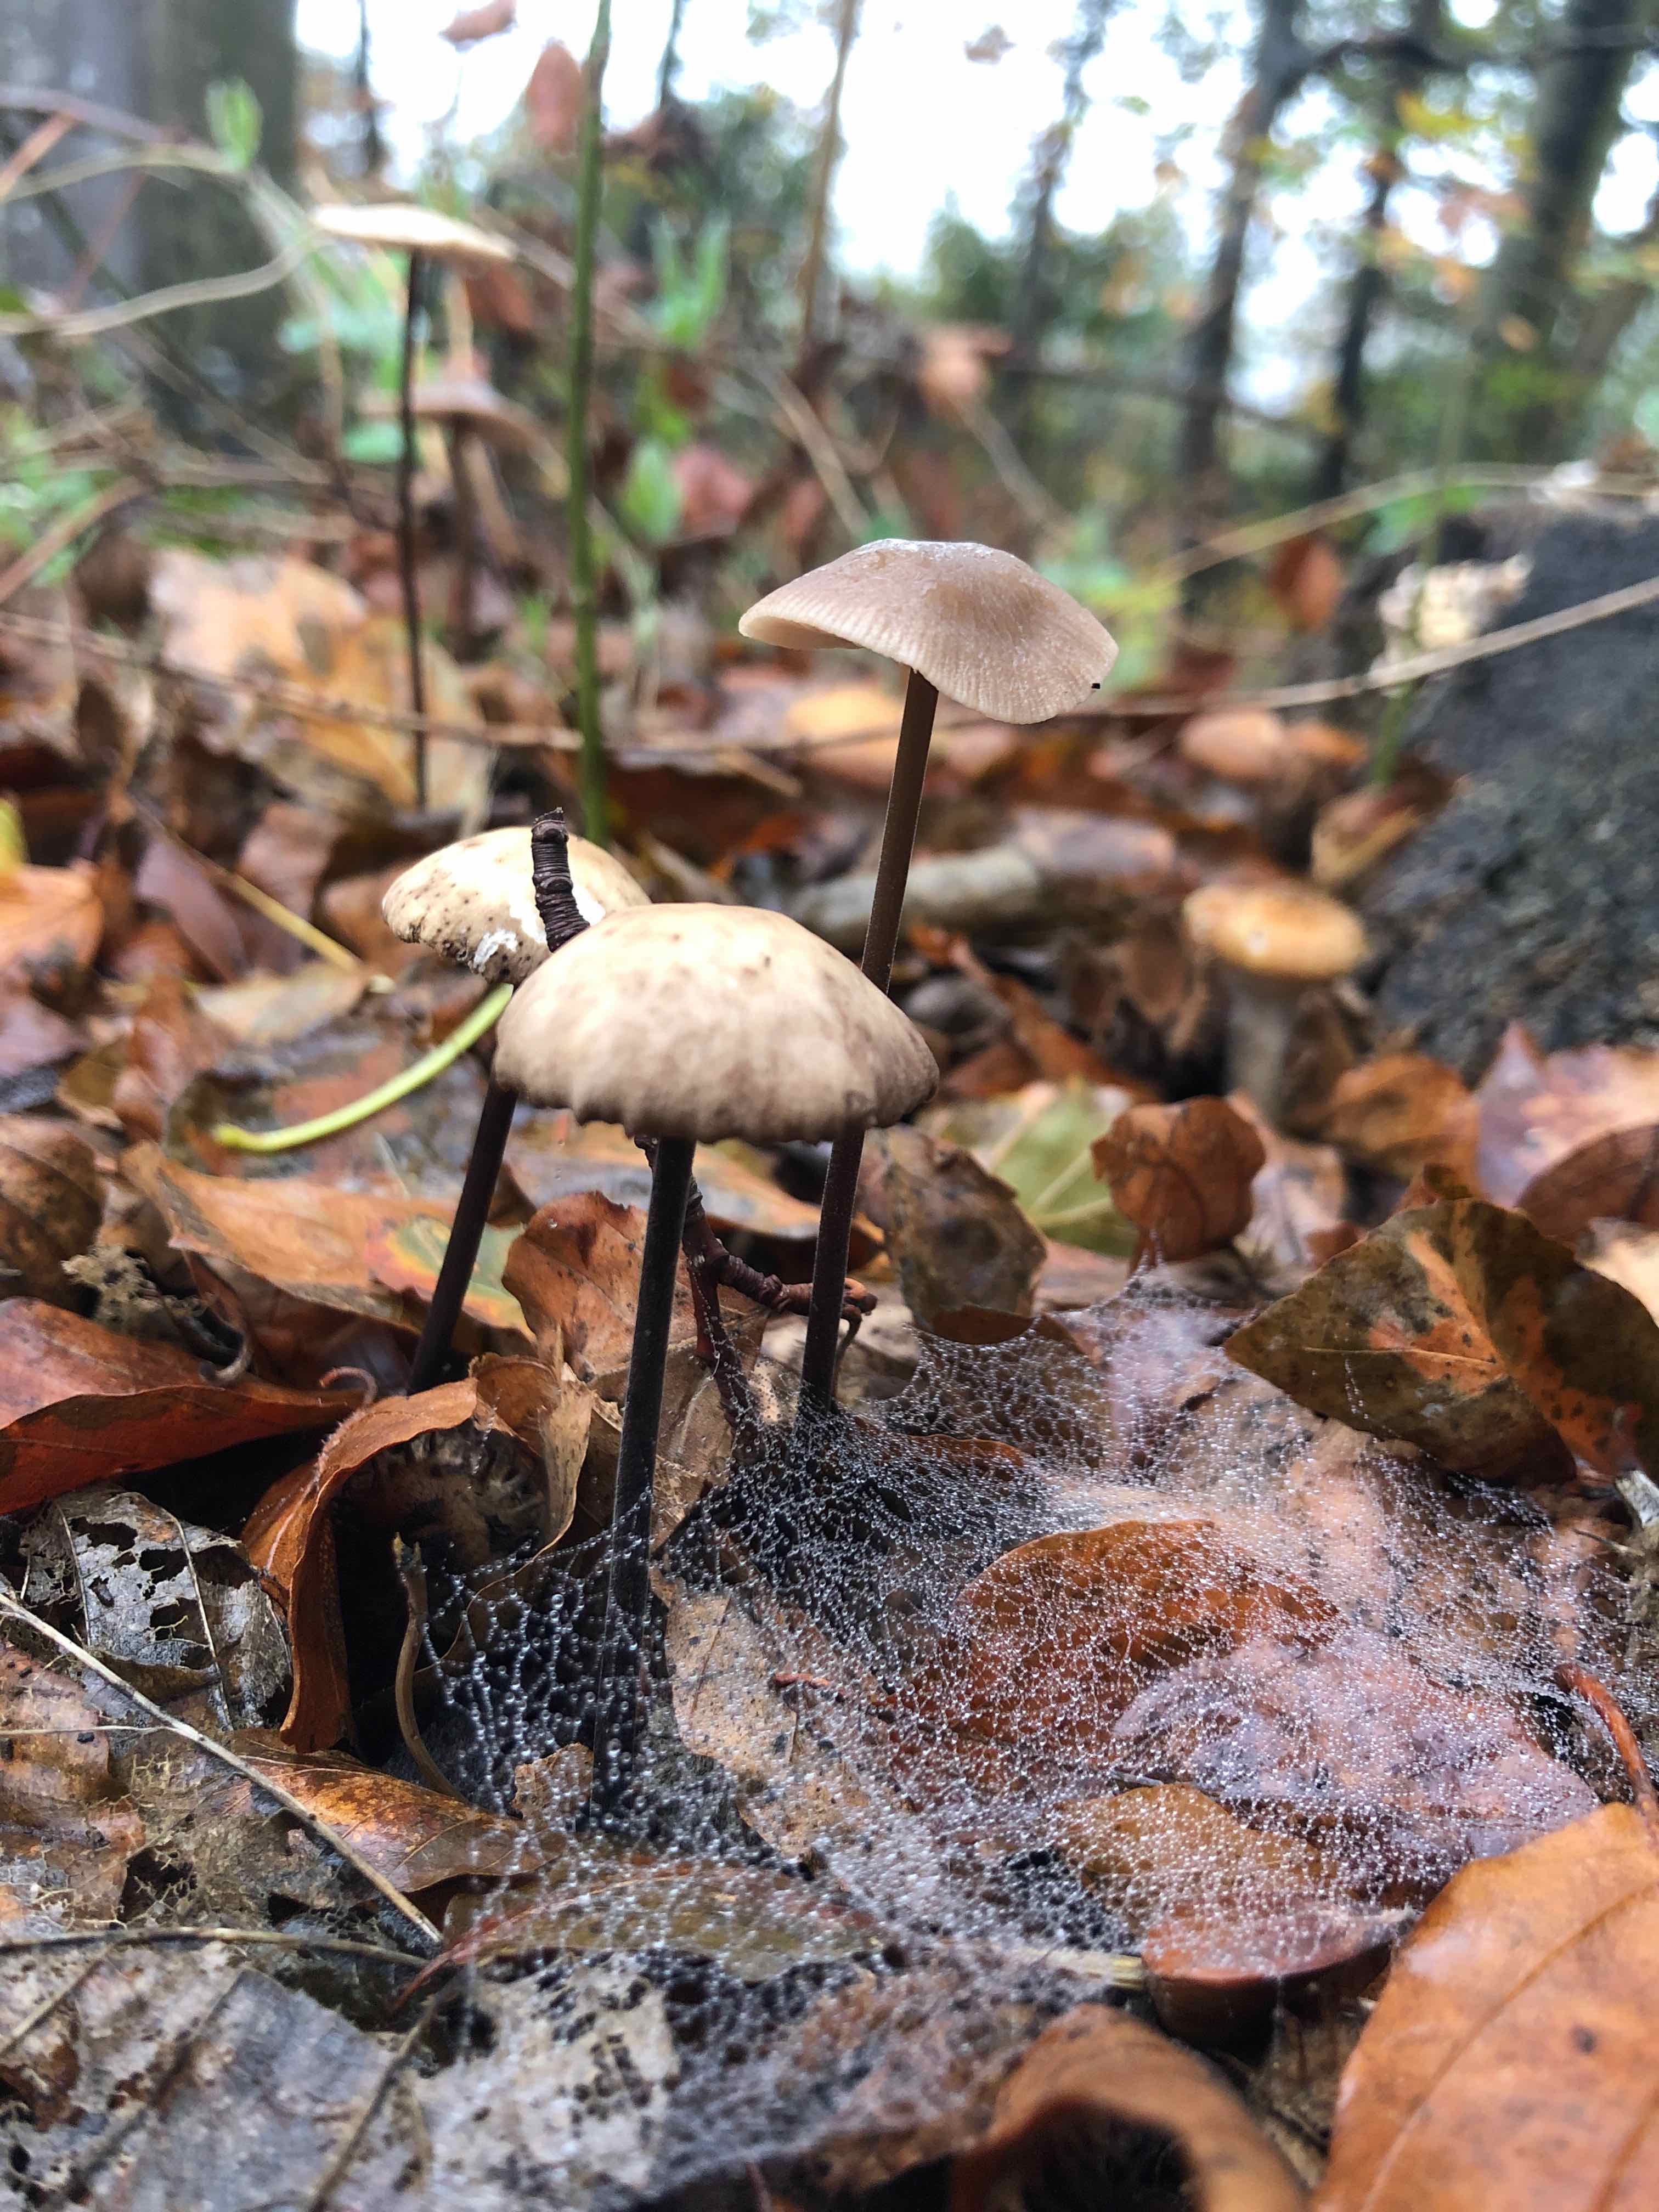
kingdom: Fungi
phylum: Basidiomycota
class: Agaricomycetes
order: Agaricales
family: Omphalotaceae
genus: Mycetinis
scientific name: Mycetinis alliaceus
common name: stor løghat
